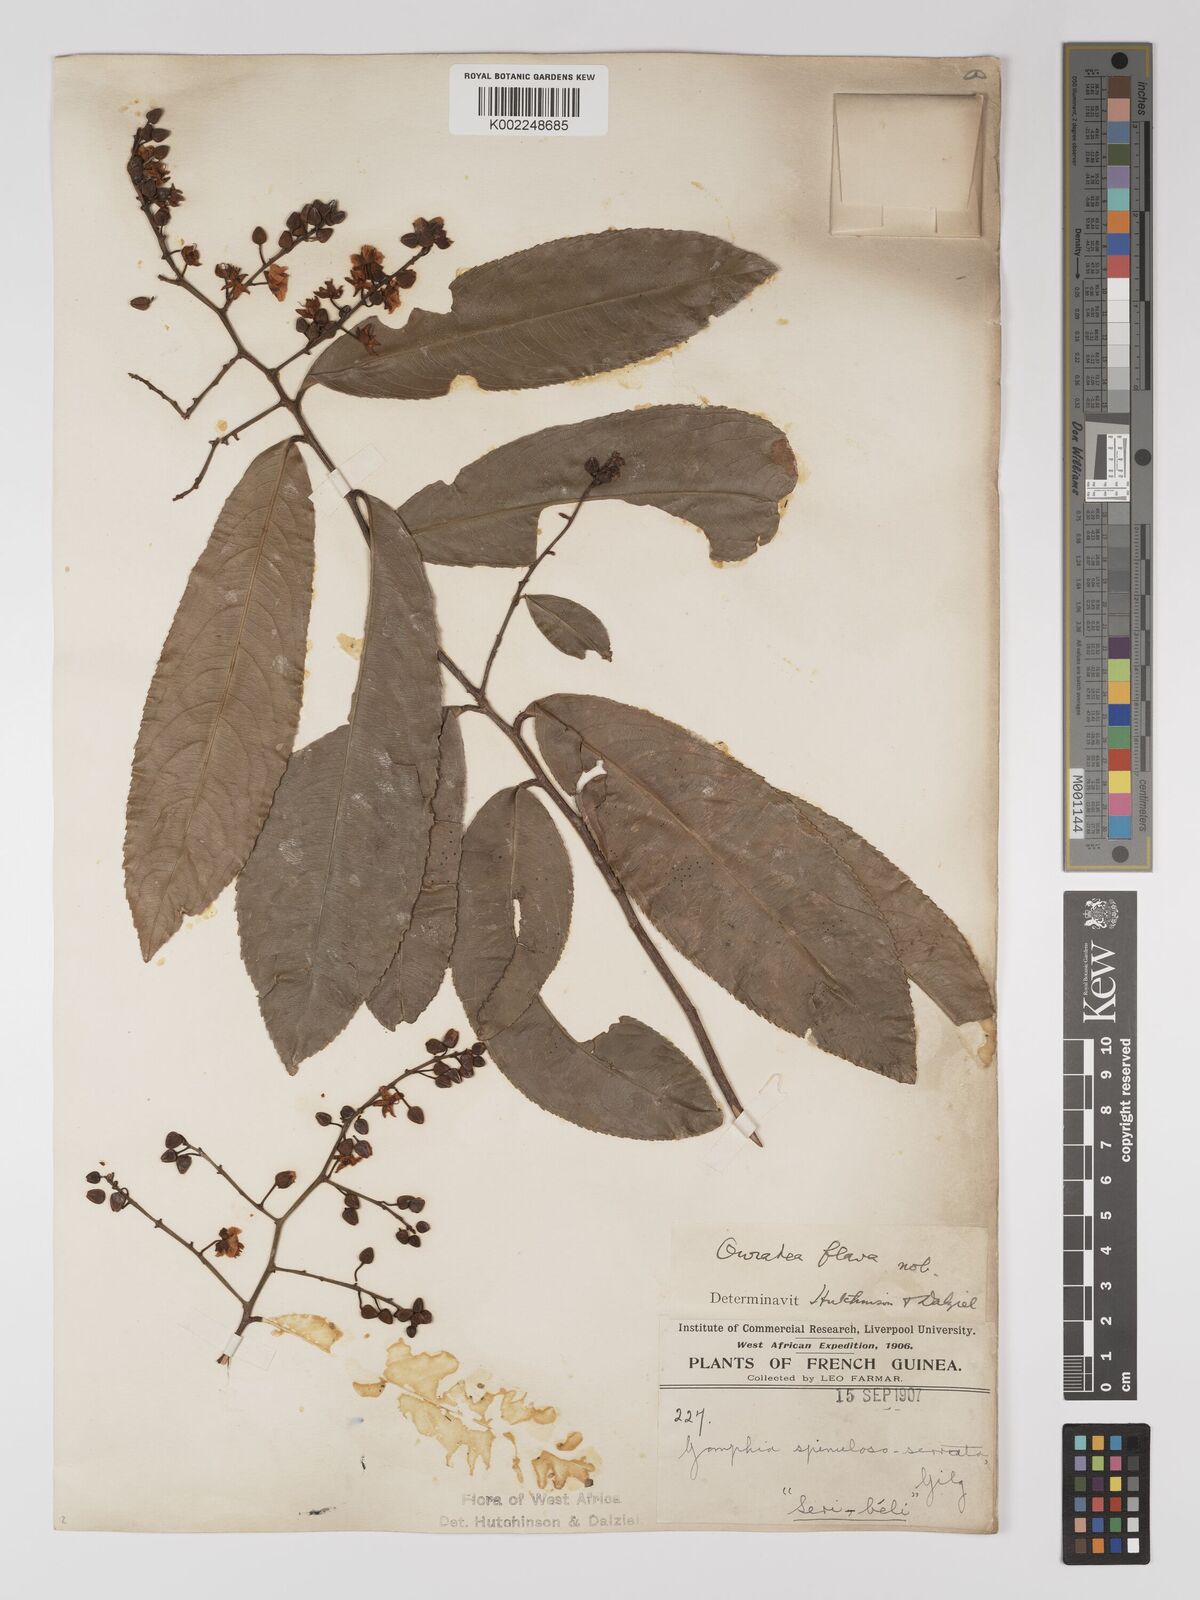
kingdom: Plantae
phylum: Tracheophyta
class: Magnoliopsida
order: Malpighiales
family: Ochnaceae
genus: Campylospermum
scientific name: Campylospermum flavum
